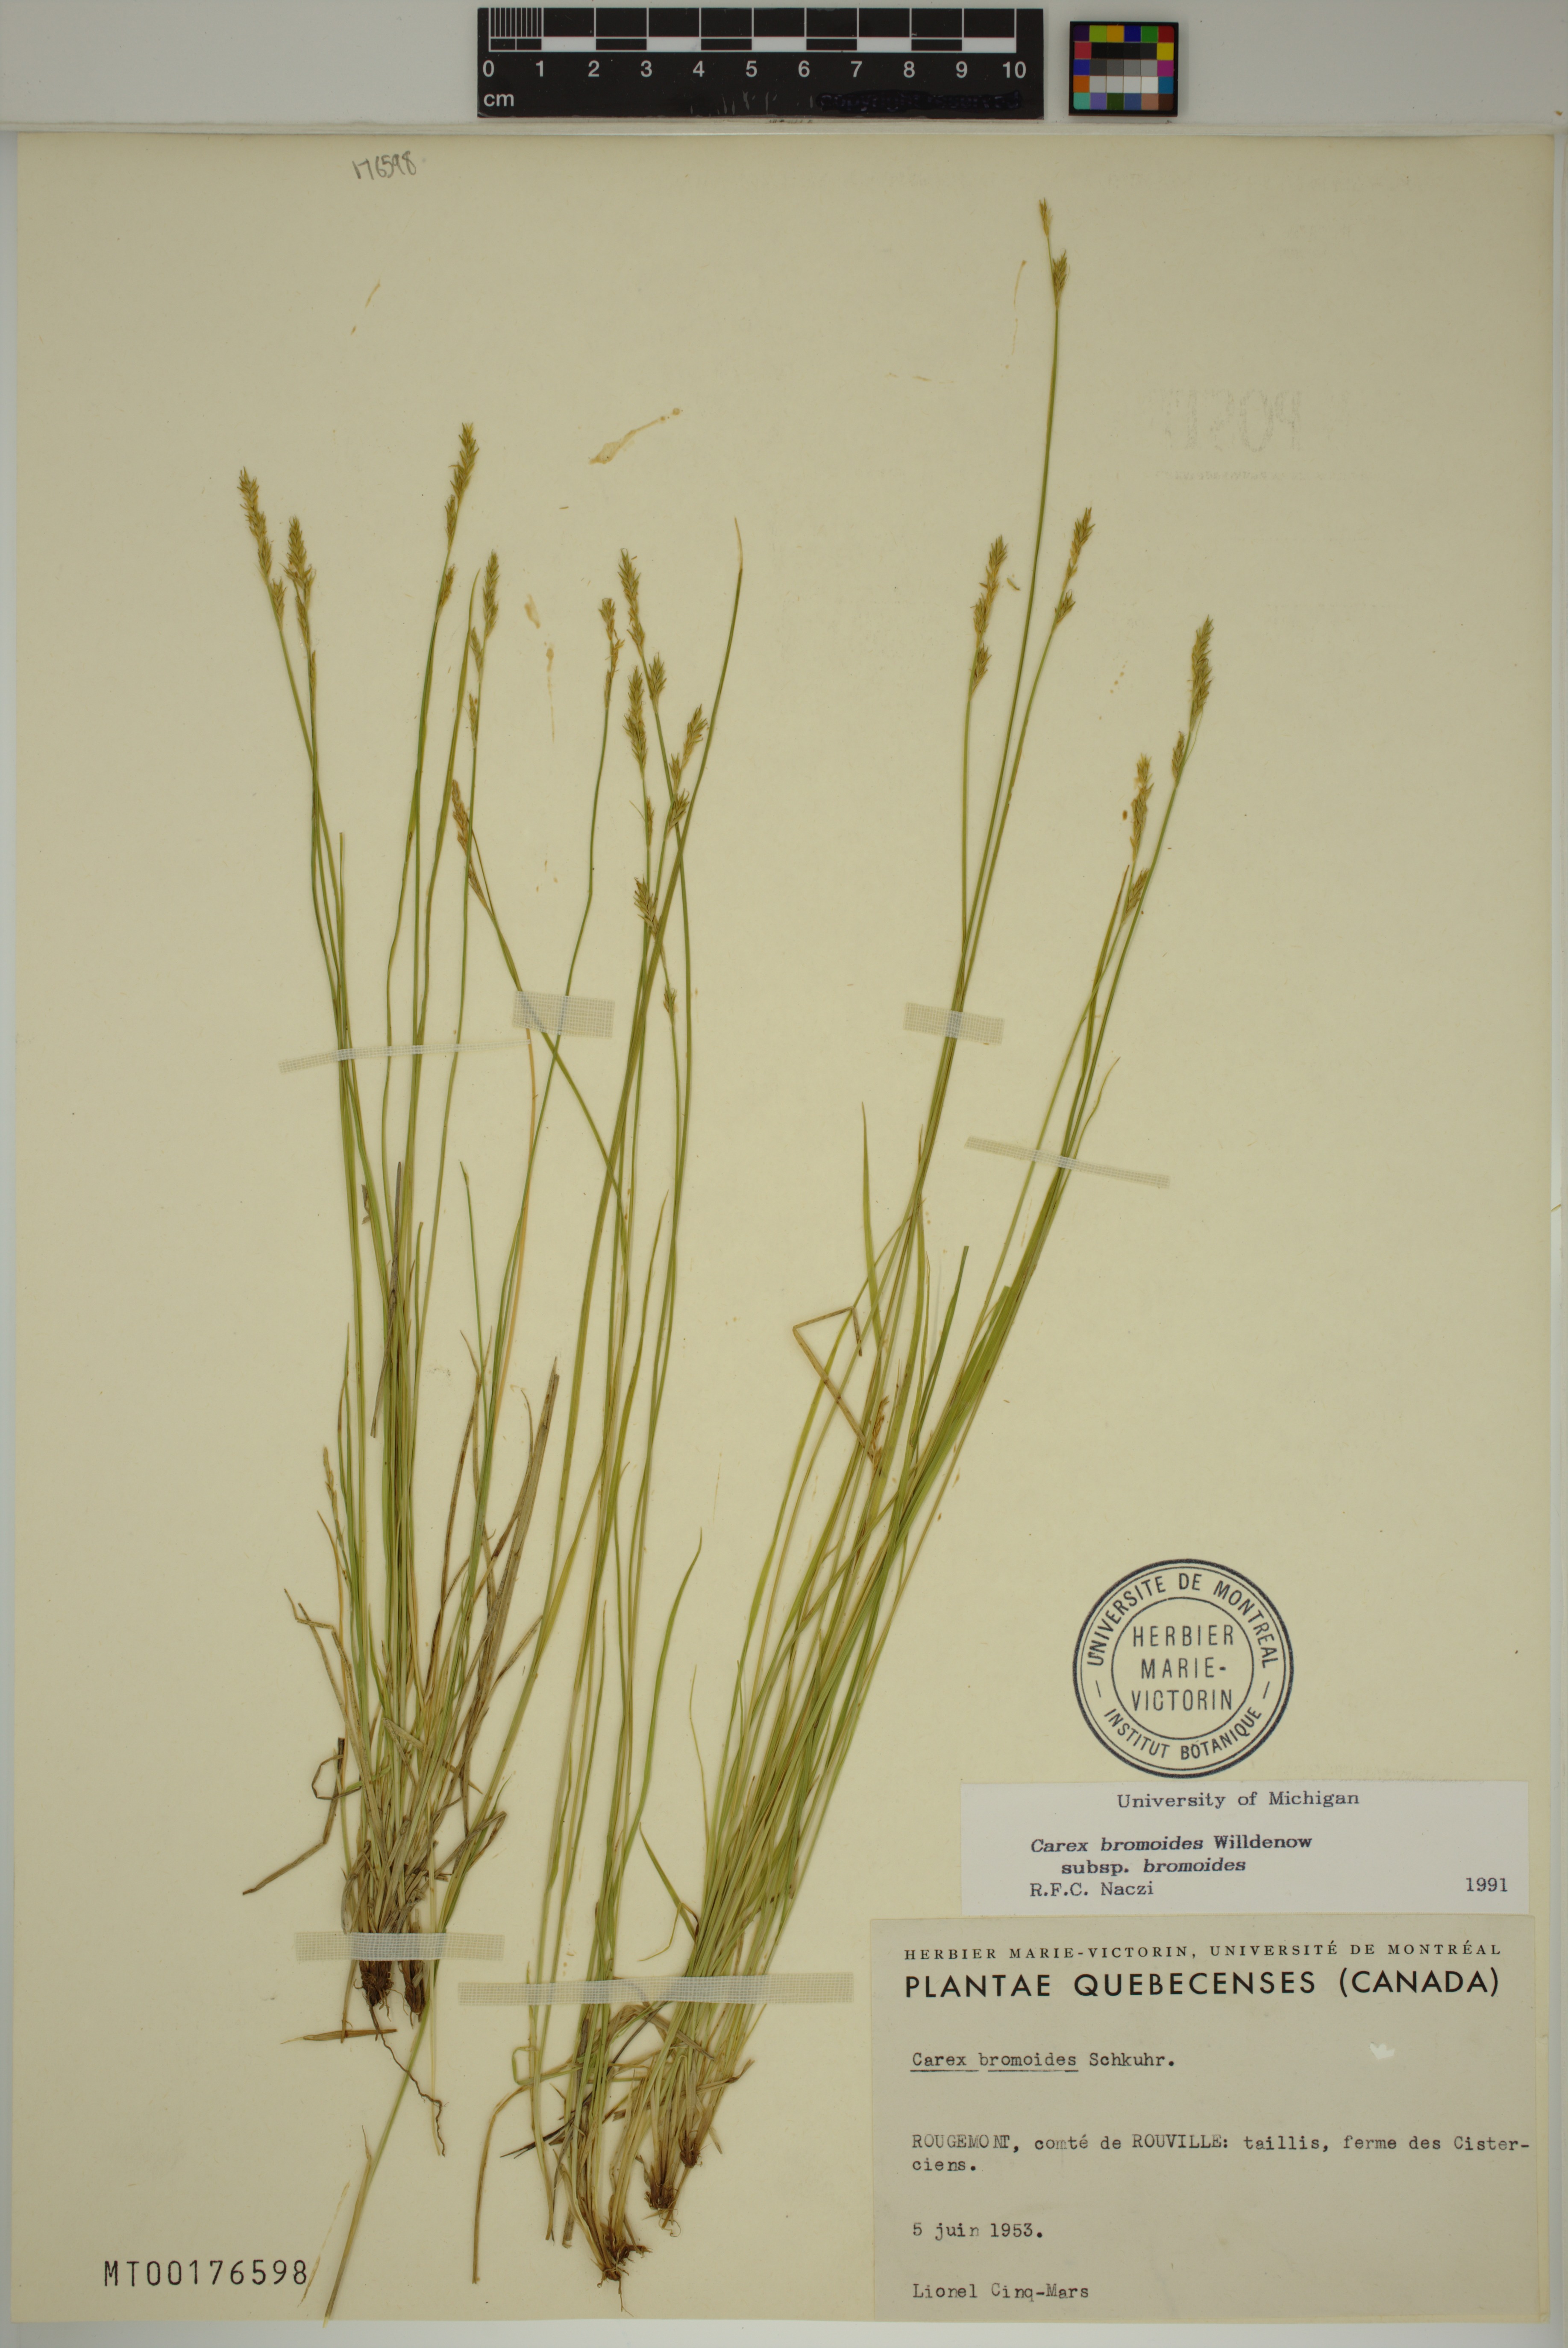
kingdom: Plantae
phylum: Tracheophyta
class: Liliopsida
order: Poales
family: Cyperaceae
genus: Carex
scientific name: Carex bromoides
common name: Brome hummock sedge
